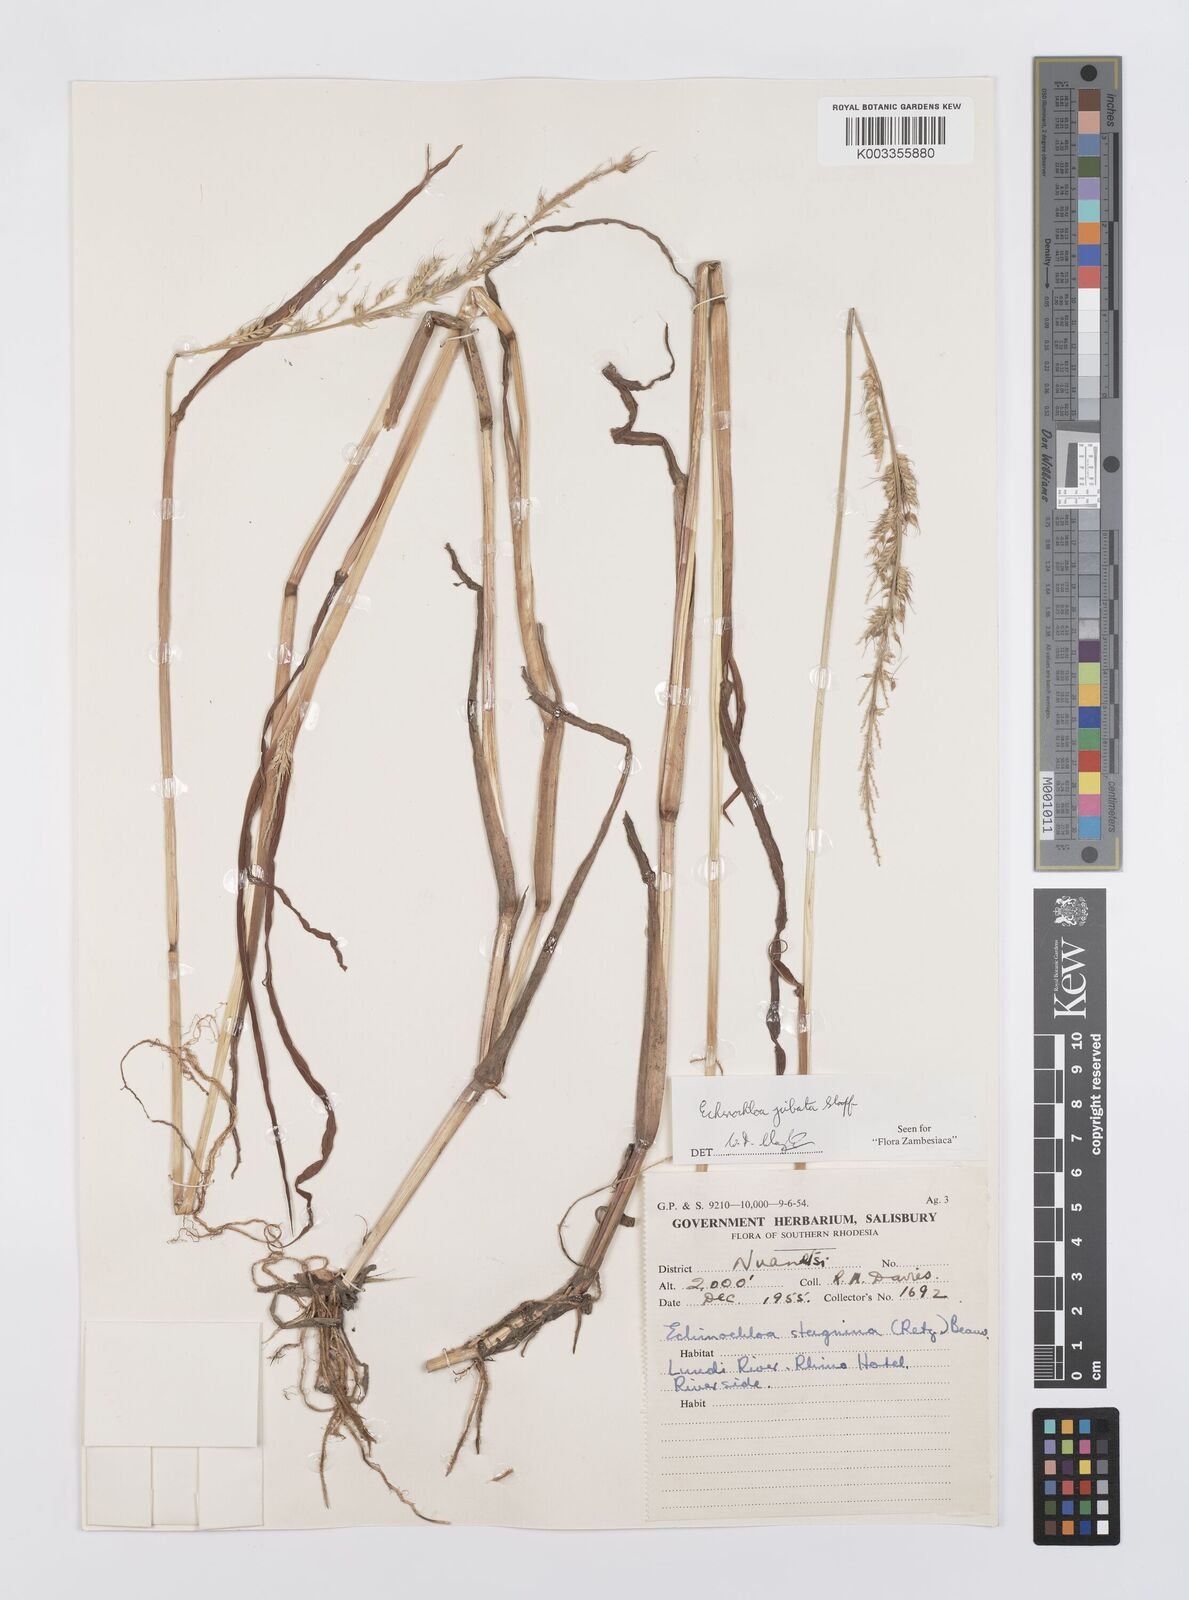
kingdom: Plantae
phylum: Tracheophyta
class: Liliopsida
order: Poales
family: Poaceae
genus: Echinochloa
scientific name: Echinochloa jubata
